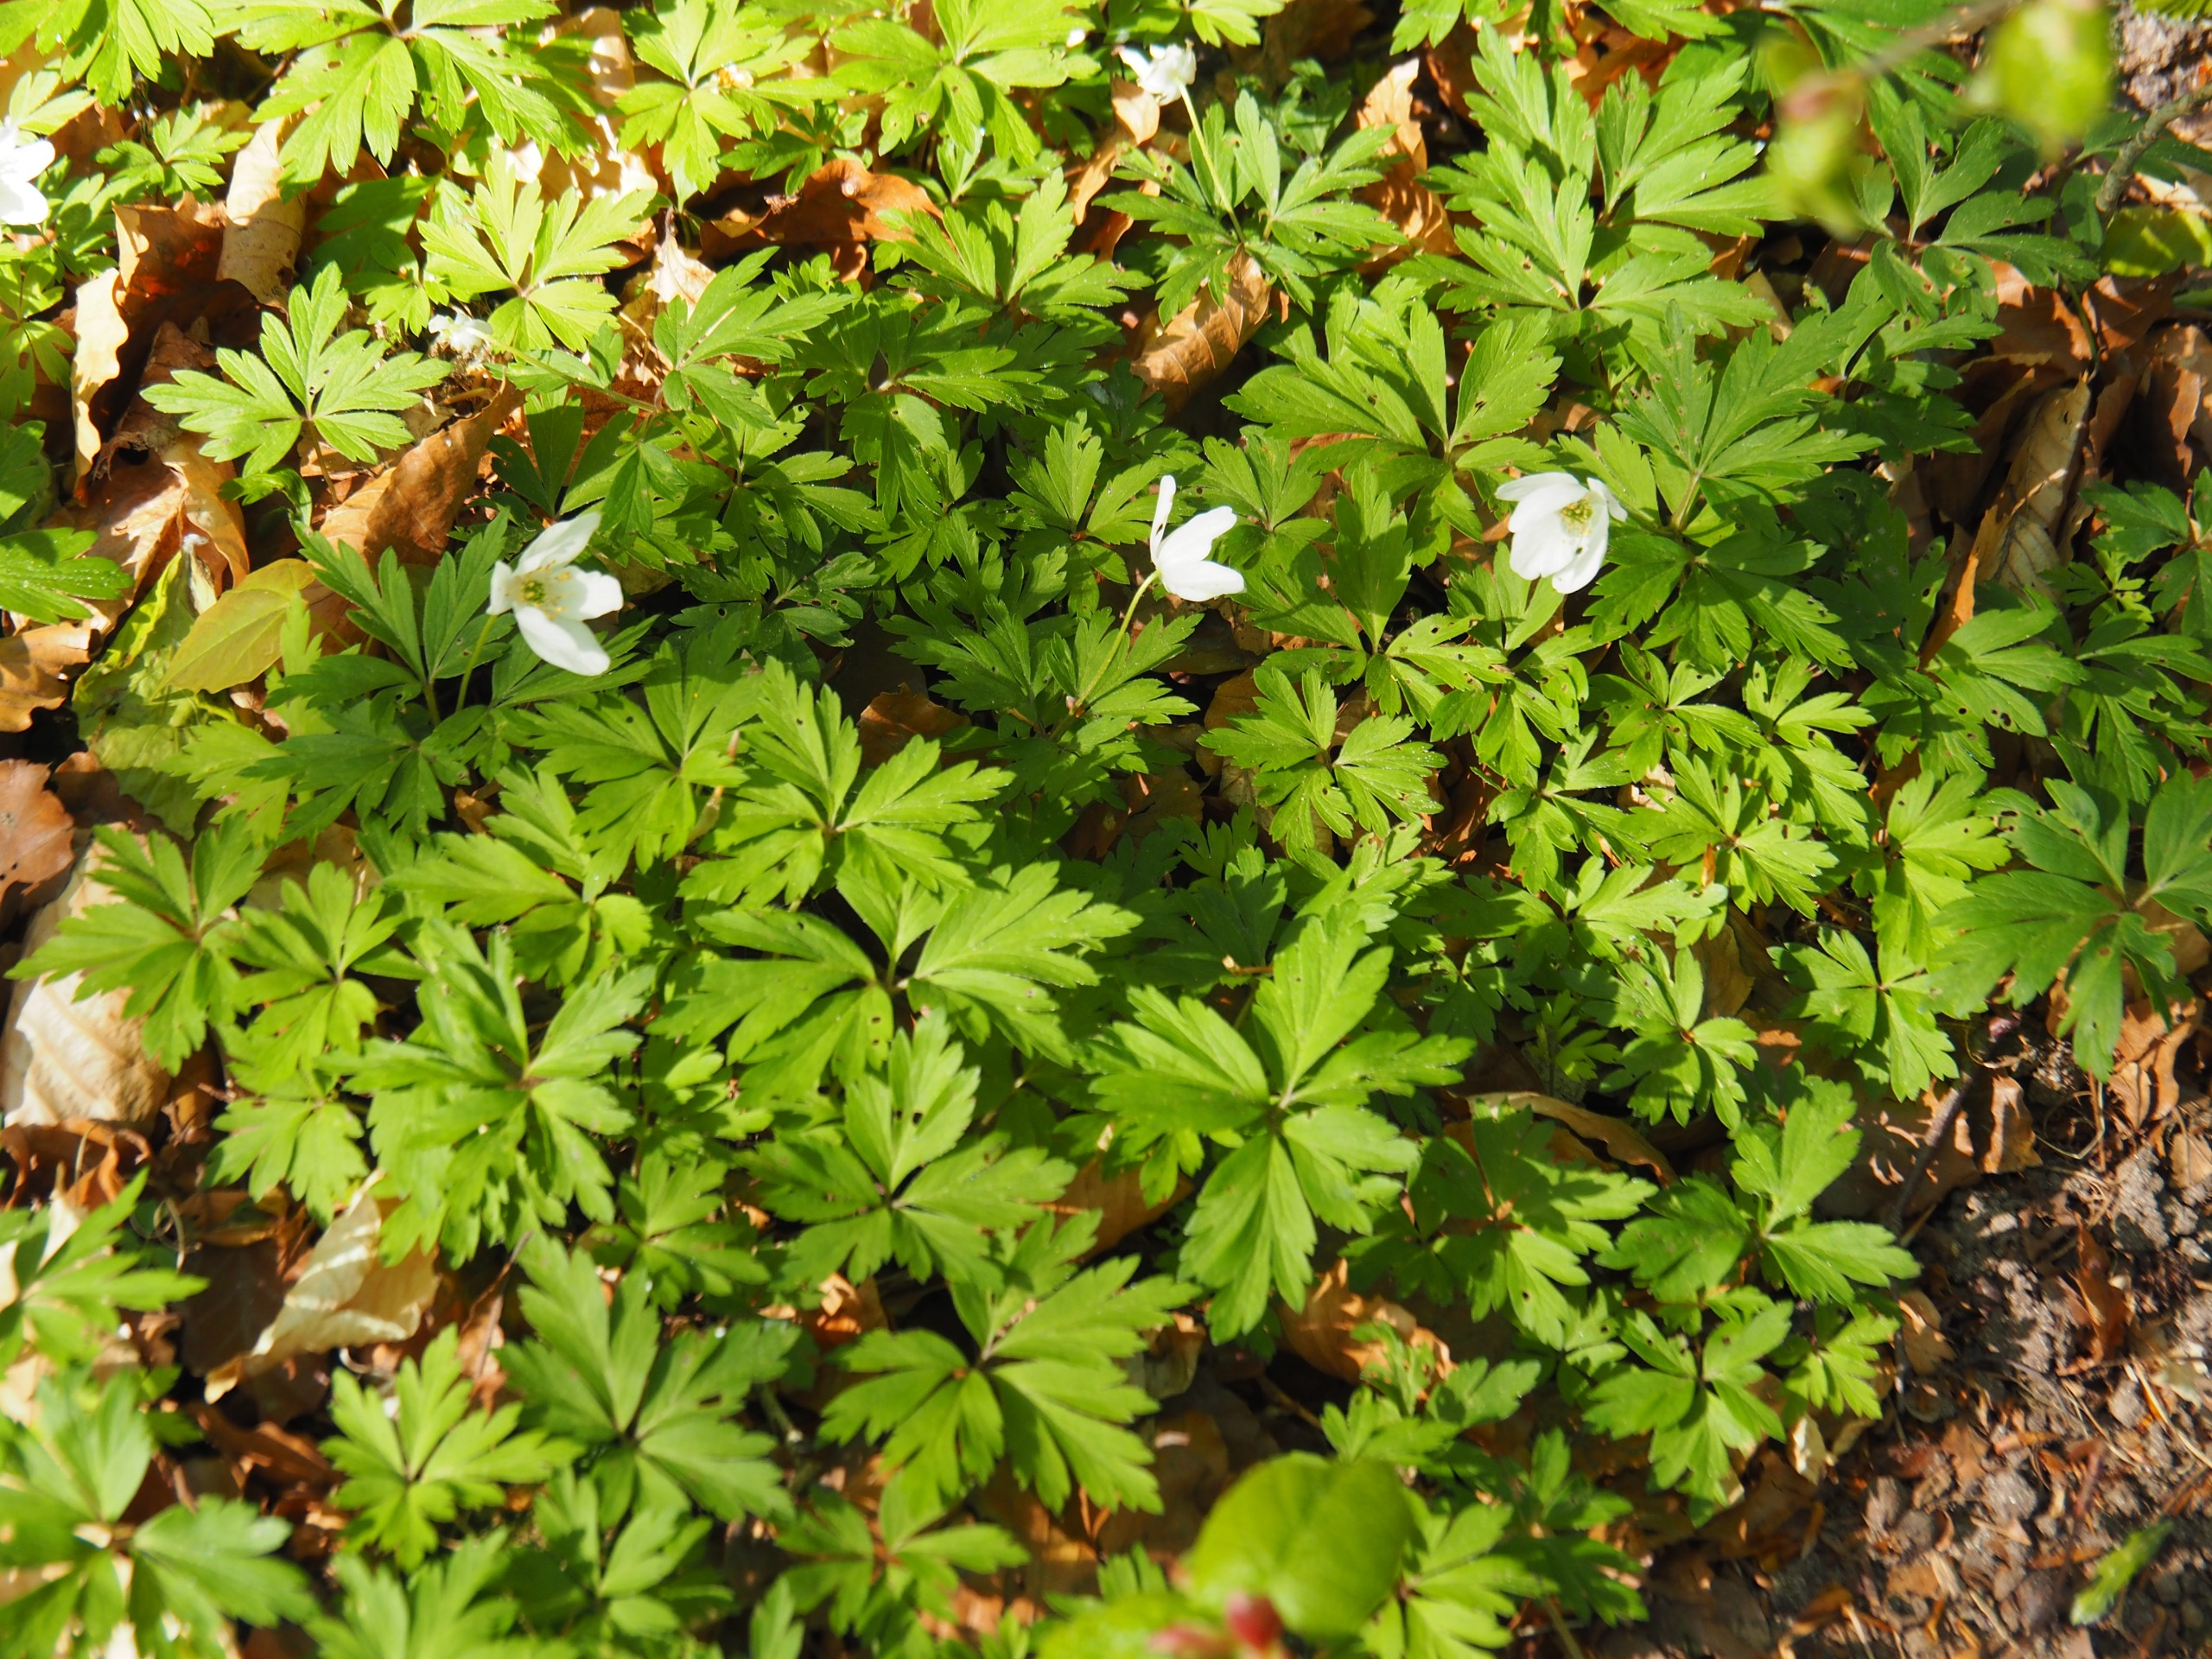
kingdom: Plantae
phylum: Tracheophyta
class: Magnoliopsida
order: Ranunculales
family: Ranunculaceae
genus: Anemone
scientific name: Anemone nemorosa
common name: Hvid anemone
